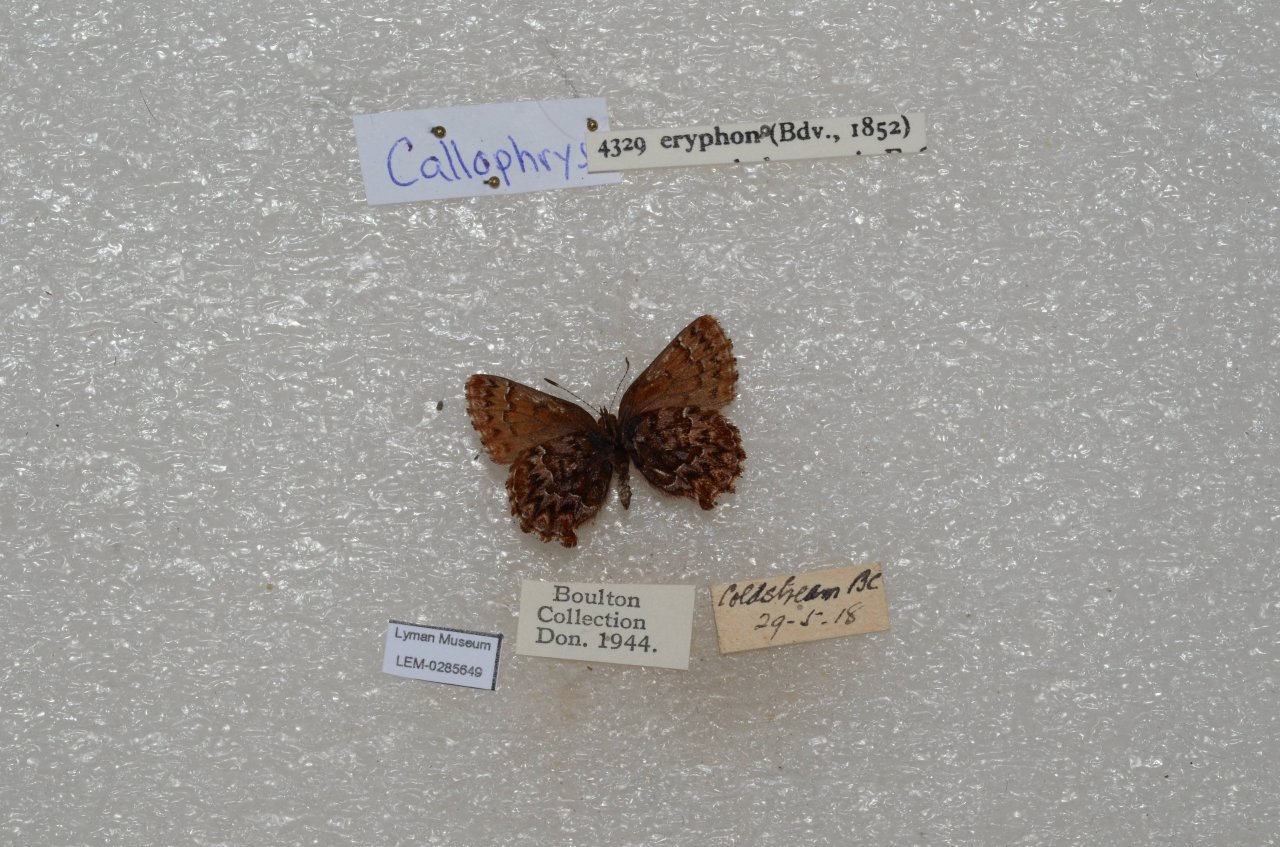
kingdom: Animalia
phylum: Arthropoda
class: Insecta
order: Lepidoptera
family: Lycaenidae
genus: Incisalia
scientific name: Incisalia eryphon
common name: Western Pine Elfin
